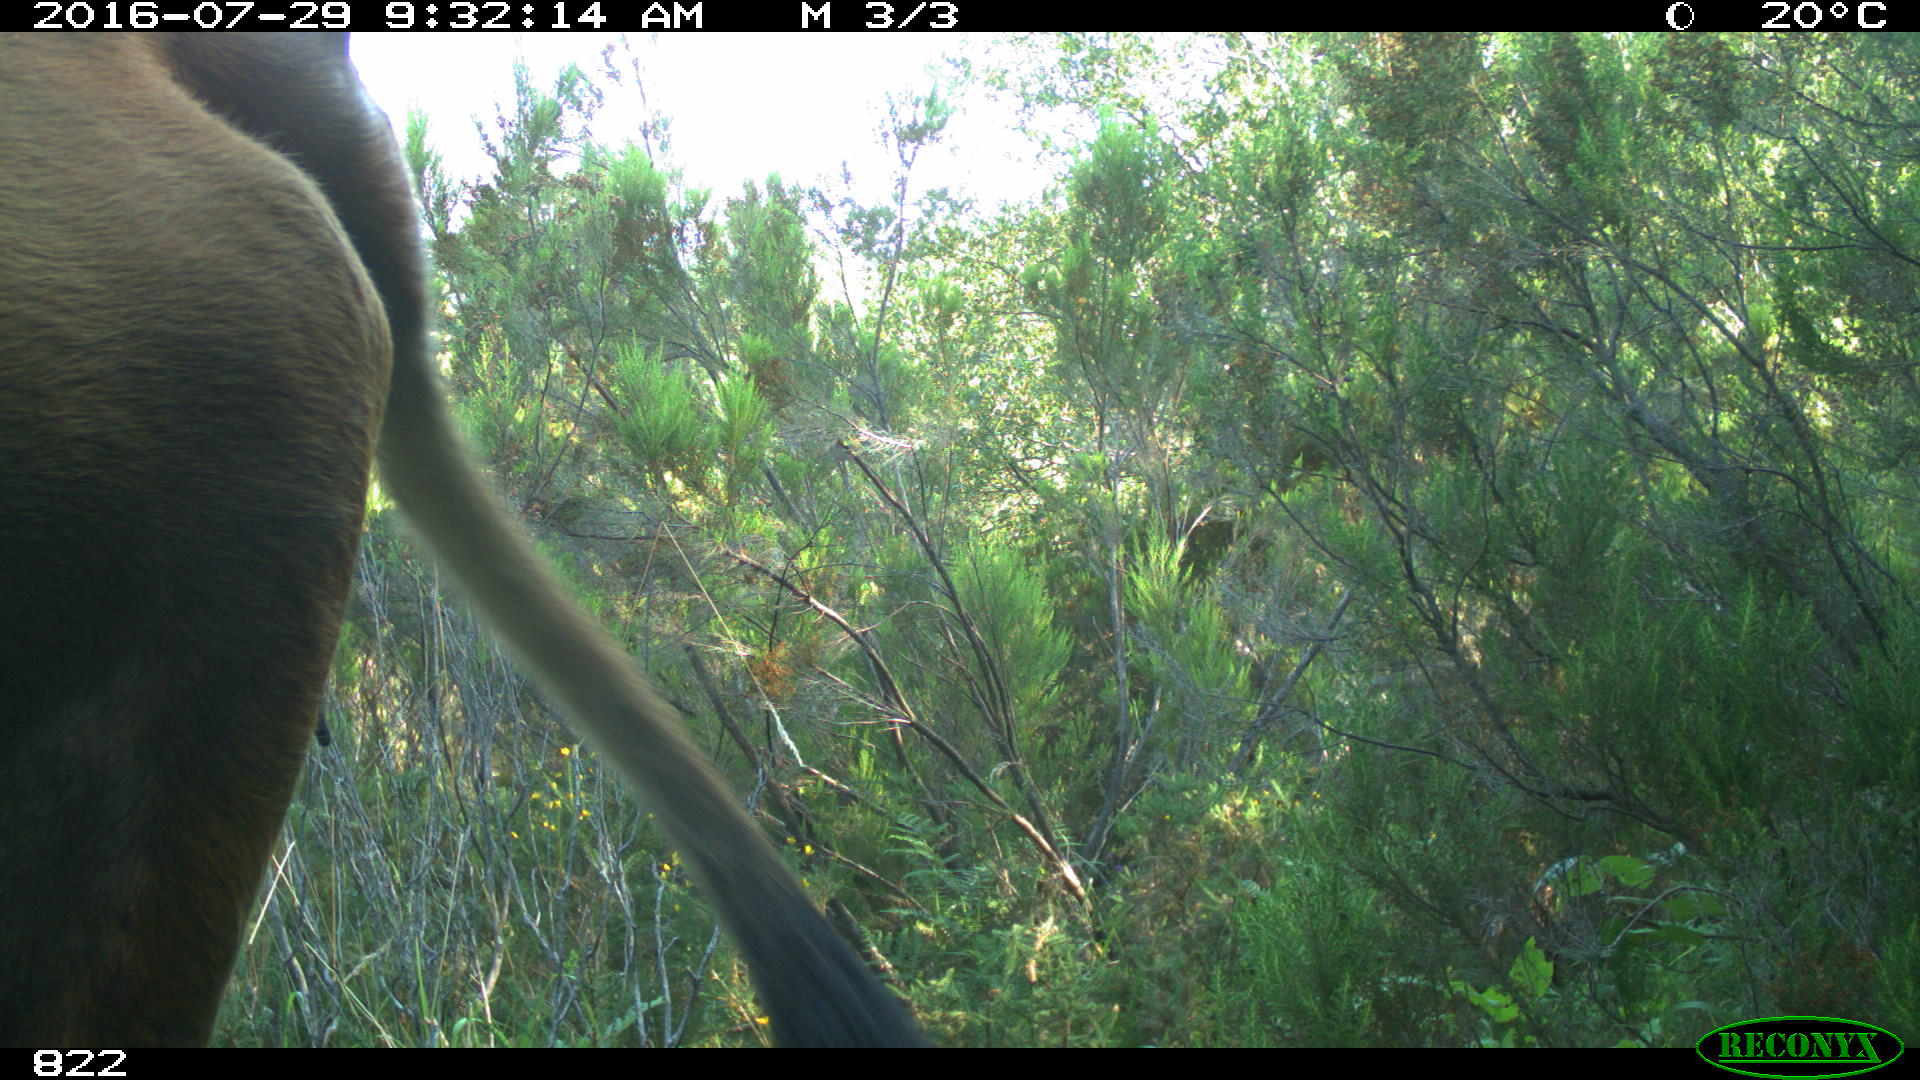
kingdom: Animalia
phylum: Chordata
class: Mammalia
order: Artiodactyla
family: Bovidae
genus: Bos
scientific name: Bos taurus
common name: Domesticated cattle
